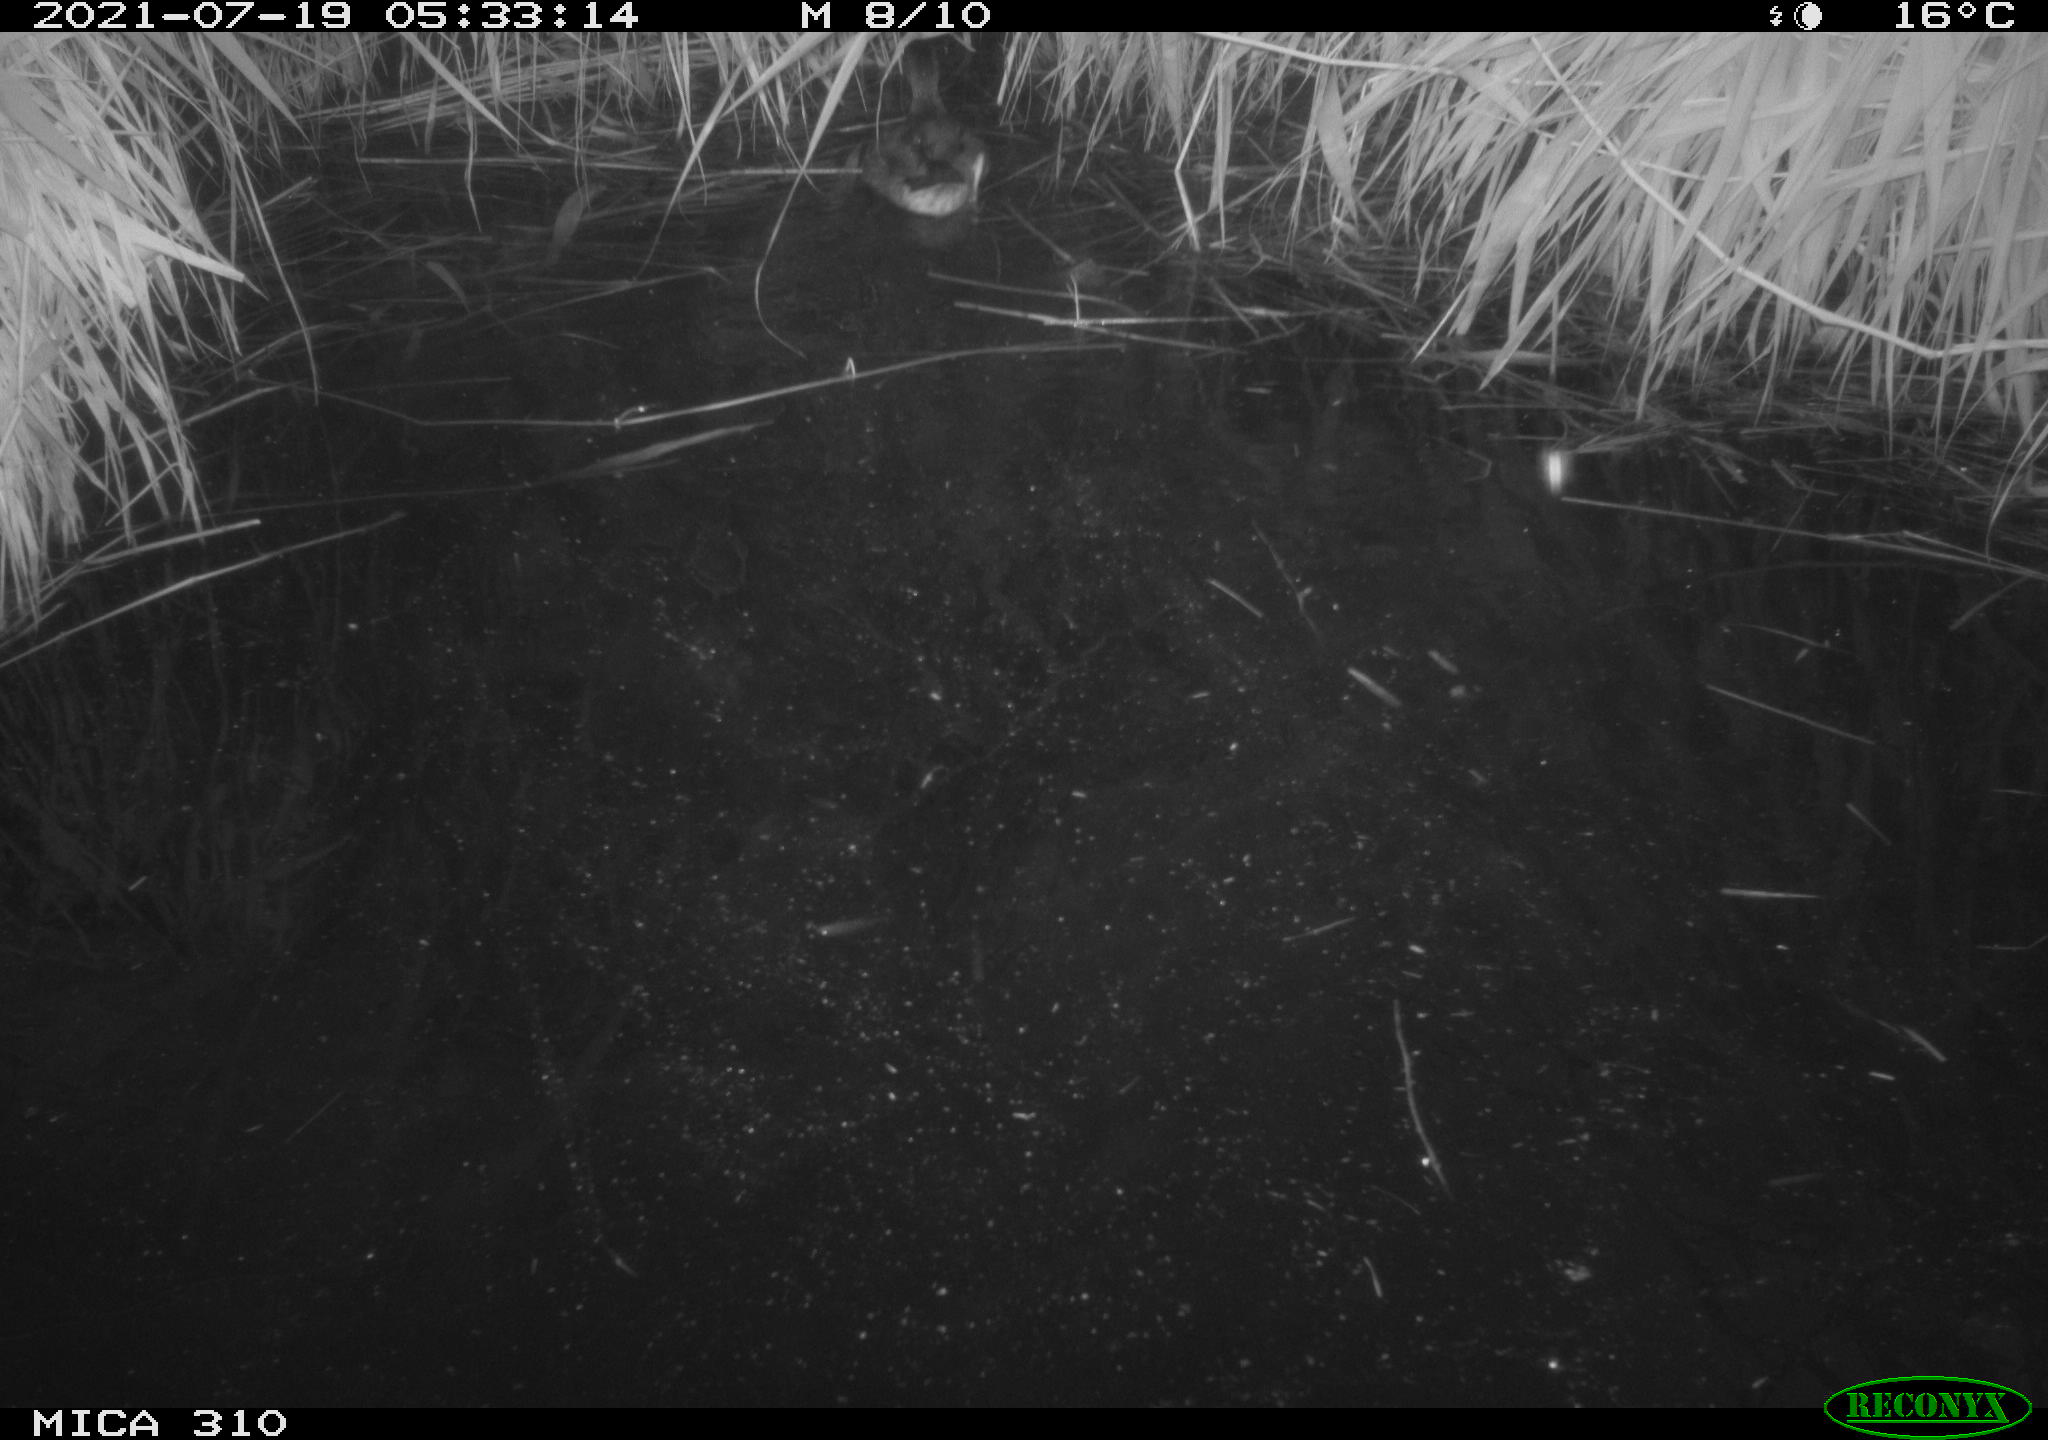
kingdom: Animalia
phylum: Chordata
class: Aves
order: Anseriformes
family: Anatidae
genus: Anas
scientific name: Anas platyrhynchos
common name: Mallard
